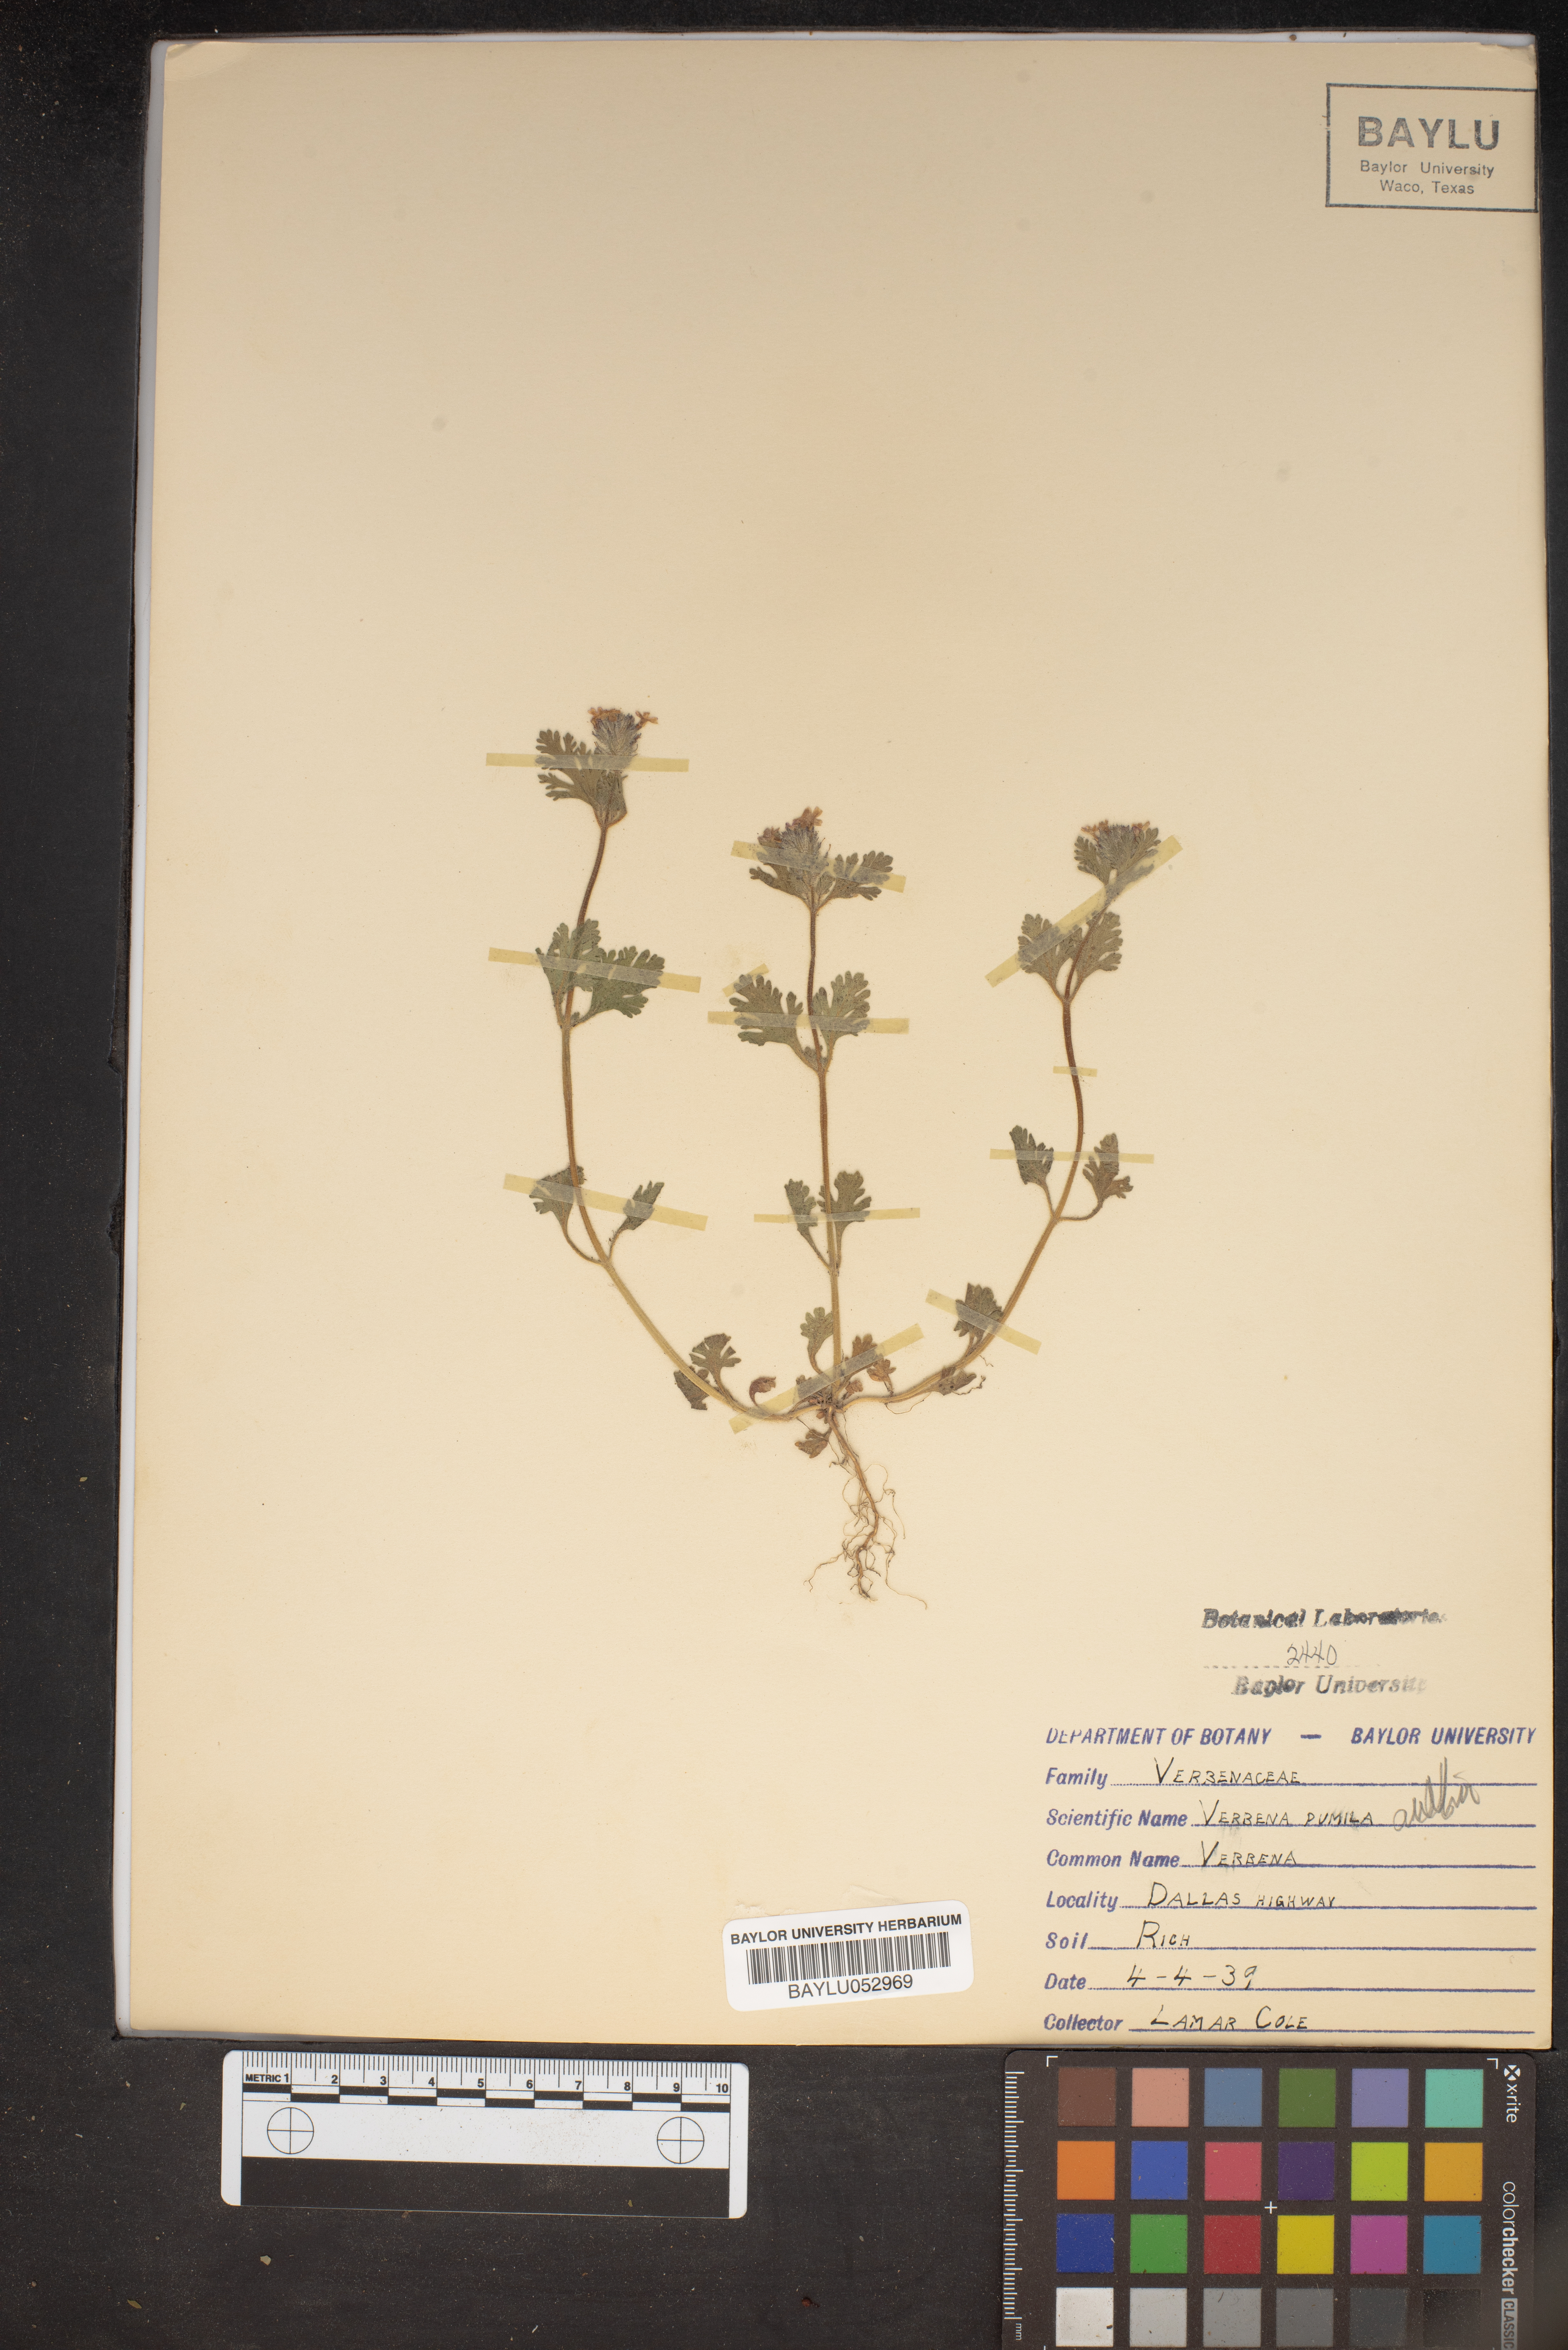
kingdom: Plantae
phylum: Tracheophyta
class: Magnoliopsida
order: Lamiales
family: Verbenaceae
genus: Verbena
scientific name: Verbena pumila
